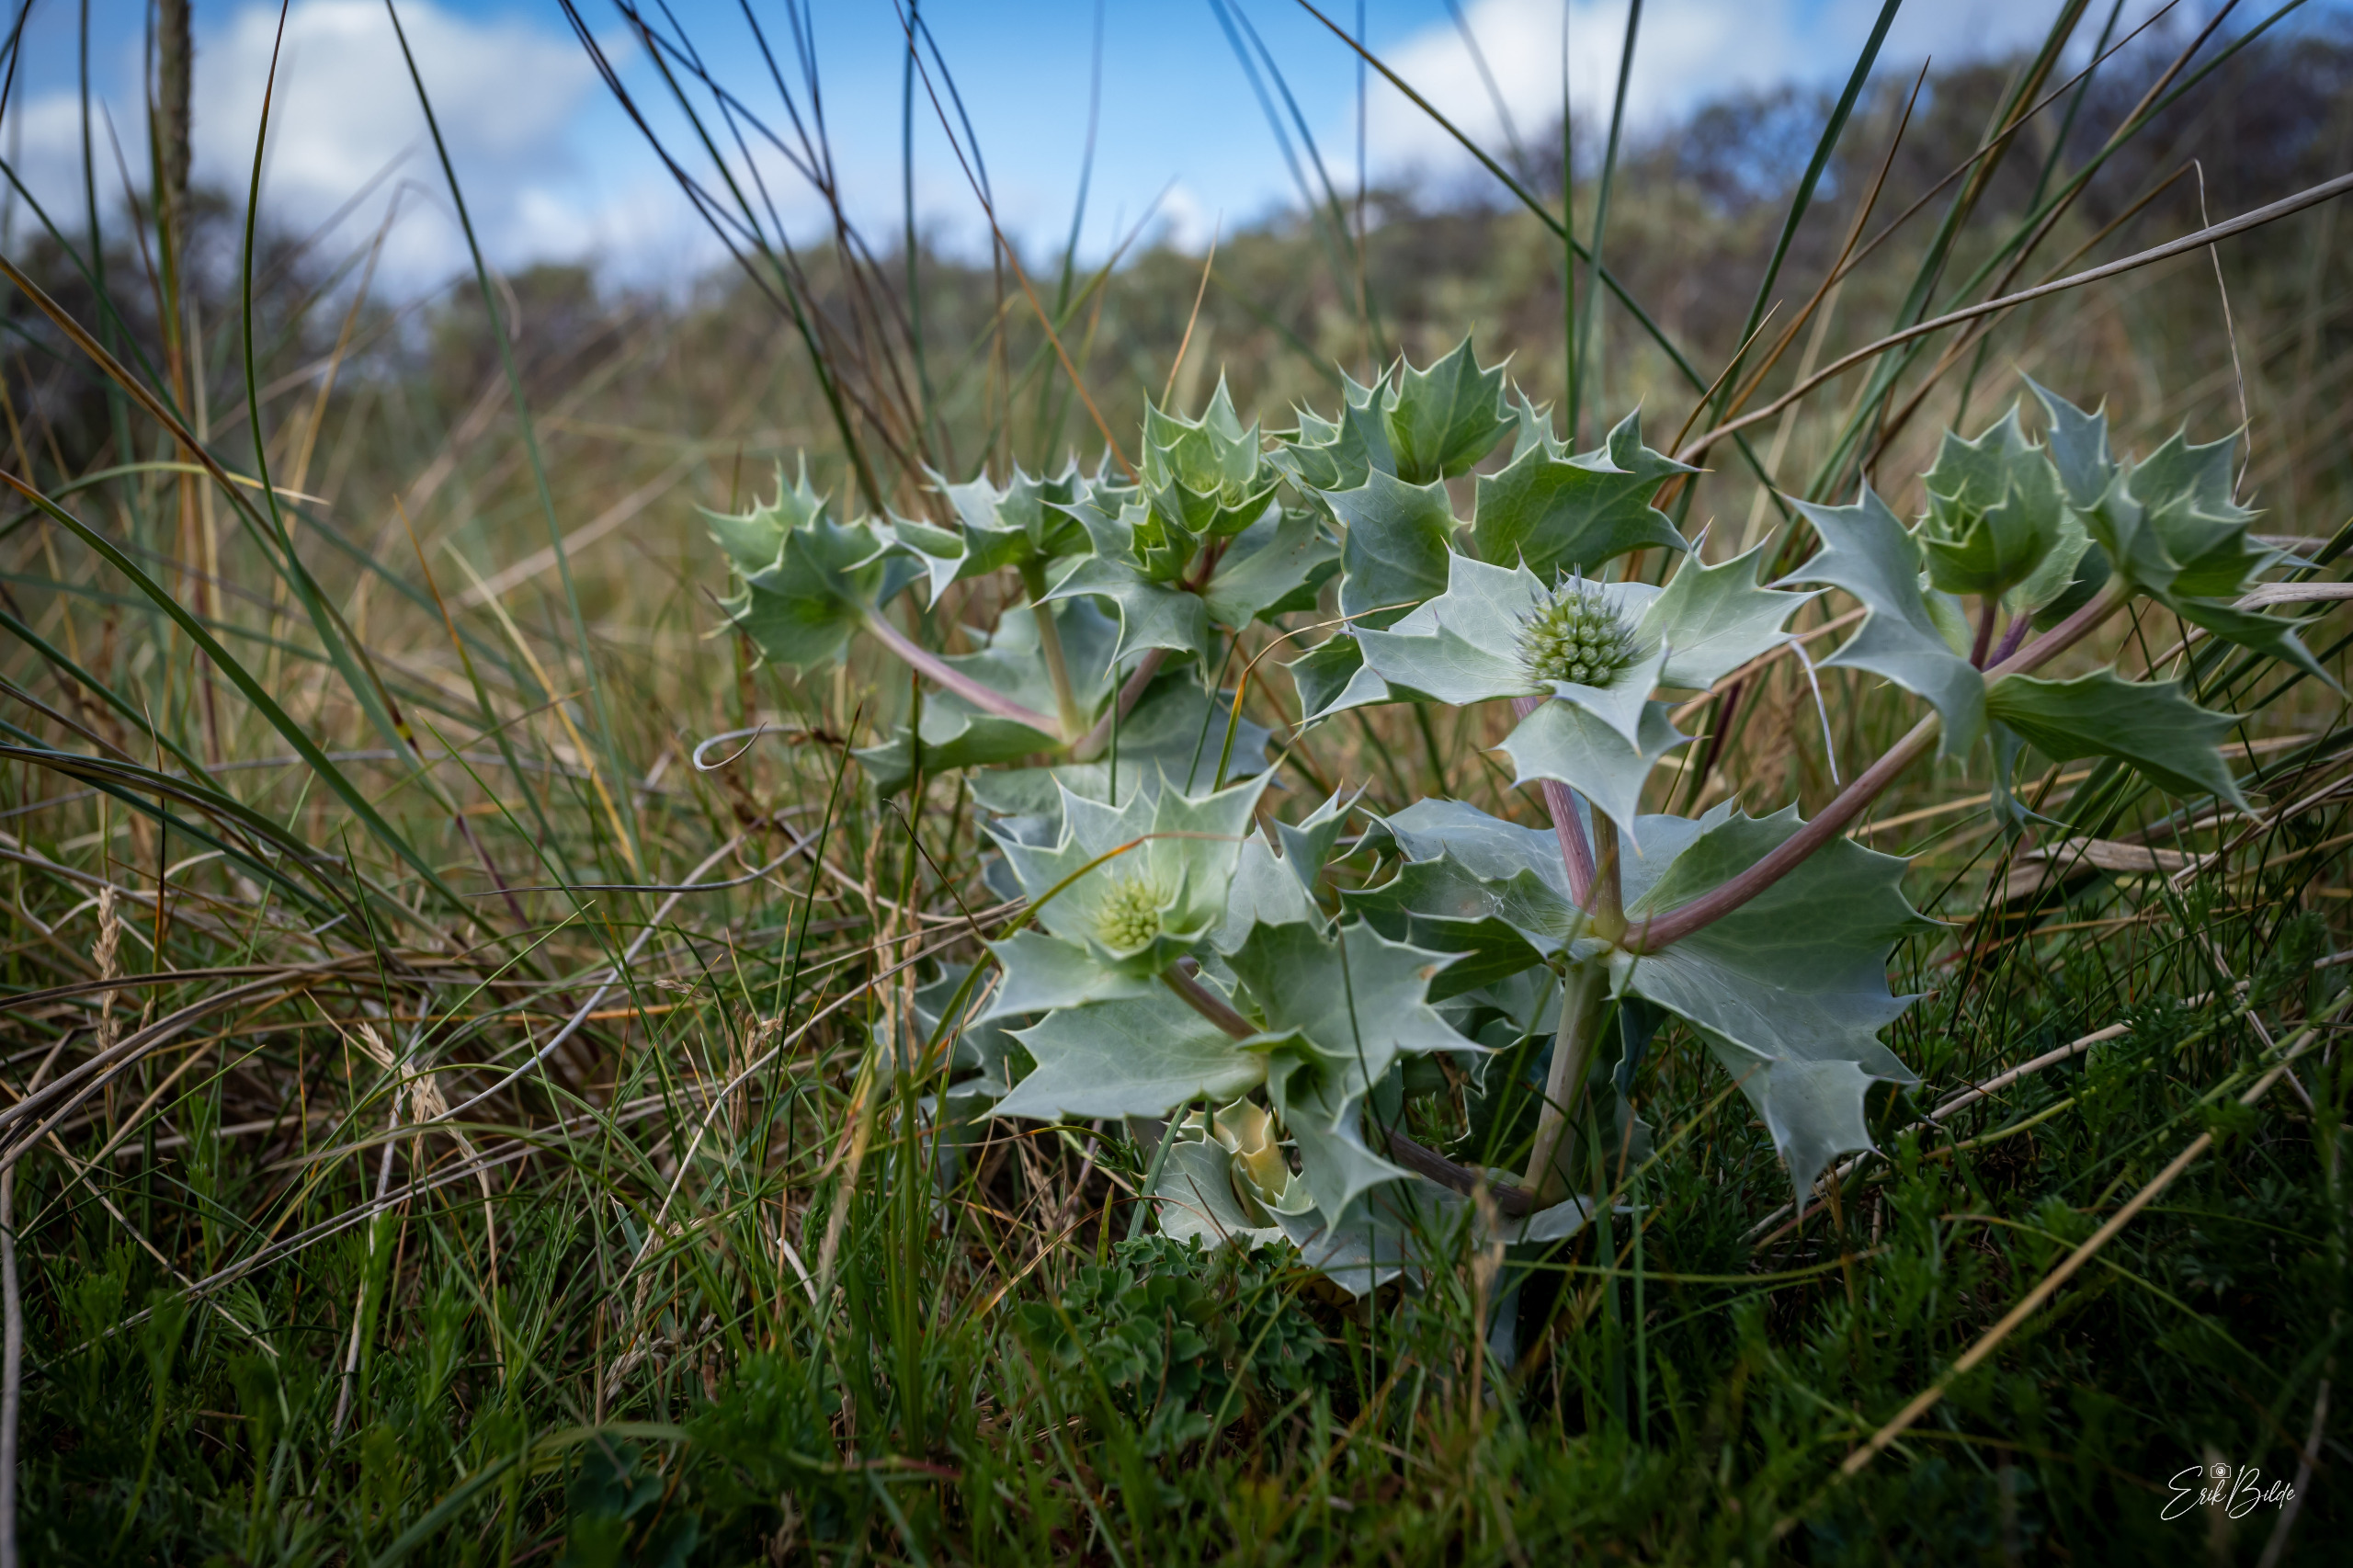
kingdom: Plantae
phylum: Tracheophyta
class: Magnoliopsida
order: Apiales
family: Apiaceae
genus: Eryngium
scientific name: Eryngium maritimum
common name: Strand-mandstro
